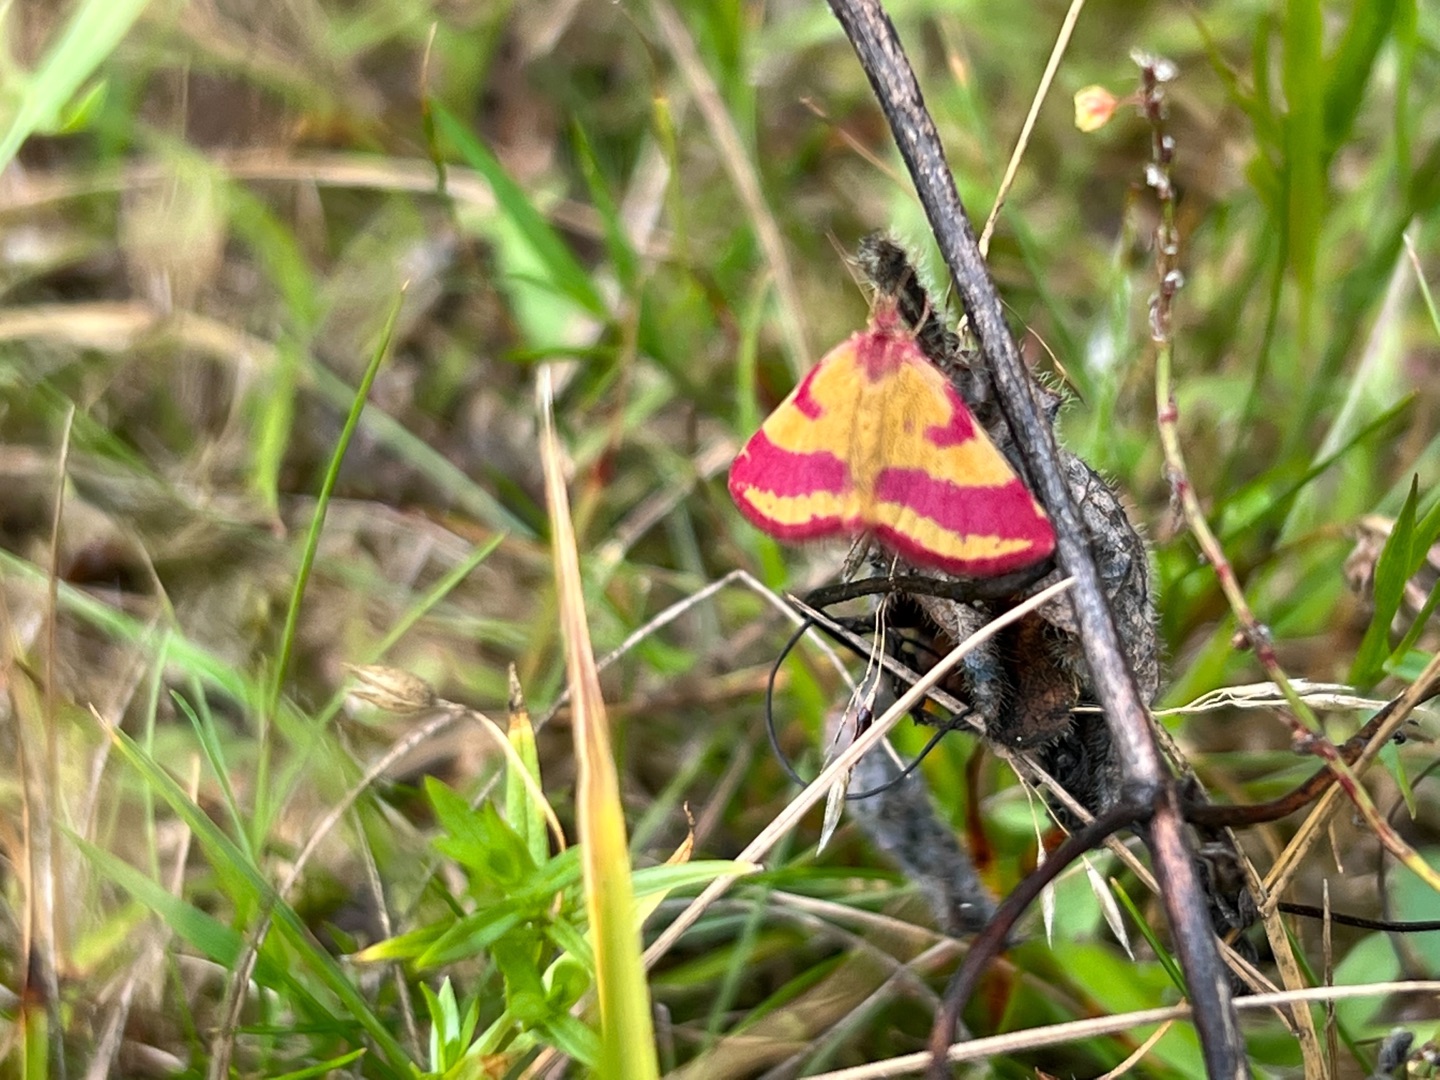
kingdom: Animalia
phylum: Arthropoda
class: Insecta
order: Lepidoptera
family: Geometridae
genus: Lythria
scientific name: Lythria cruentaria
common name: Purpurmåler
